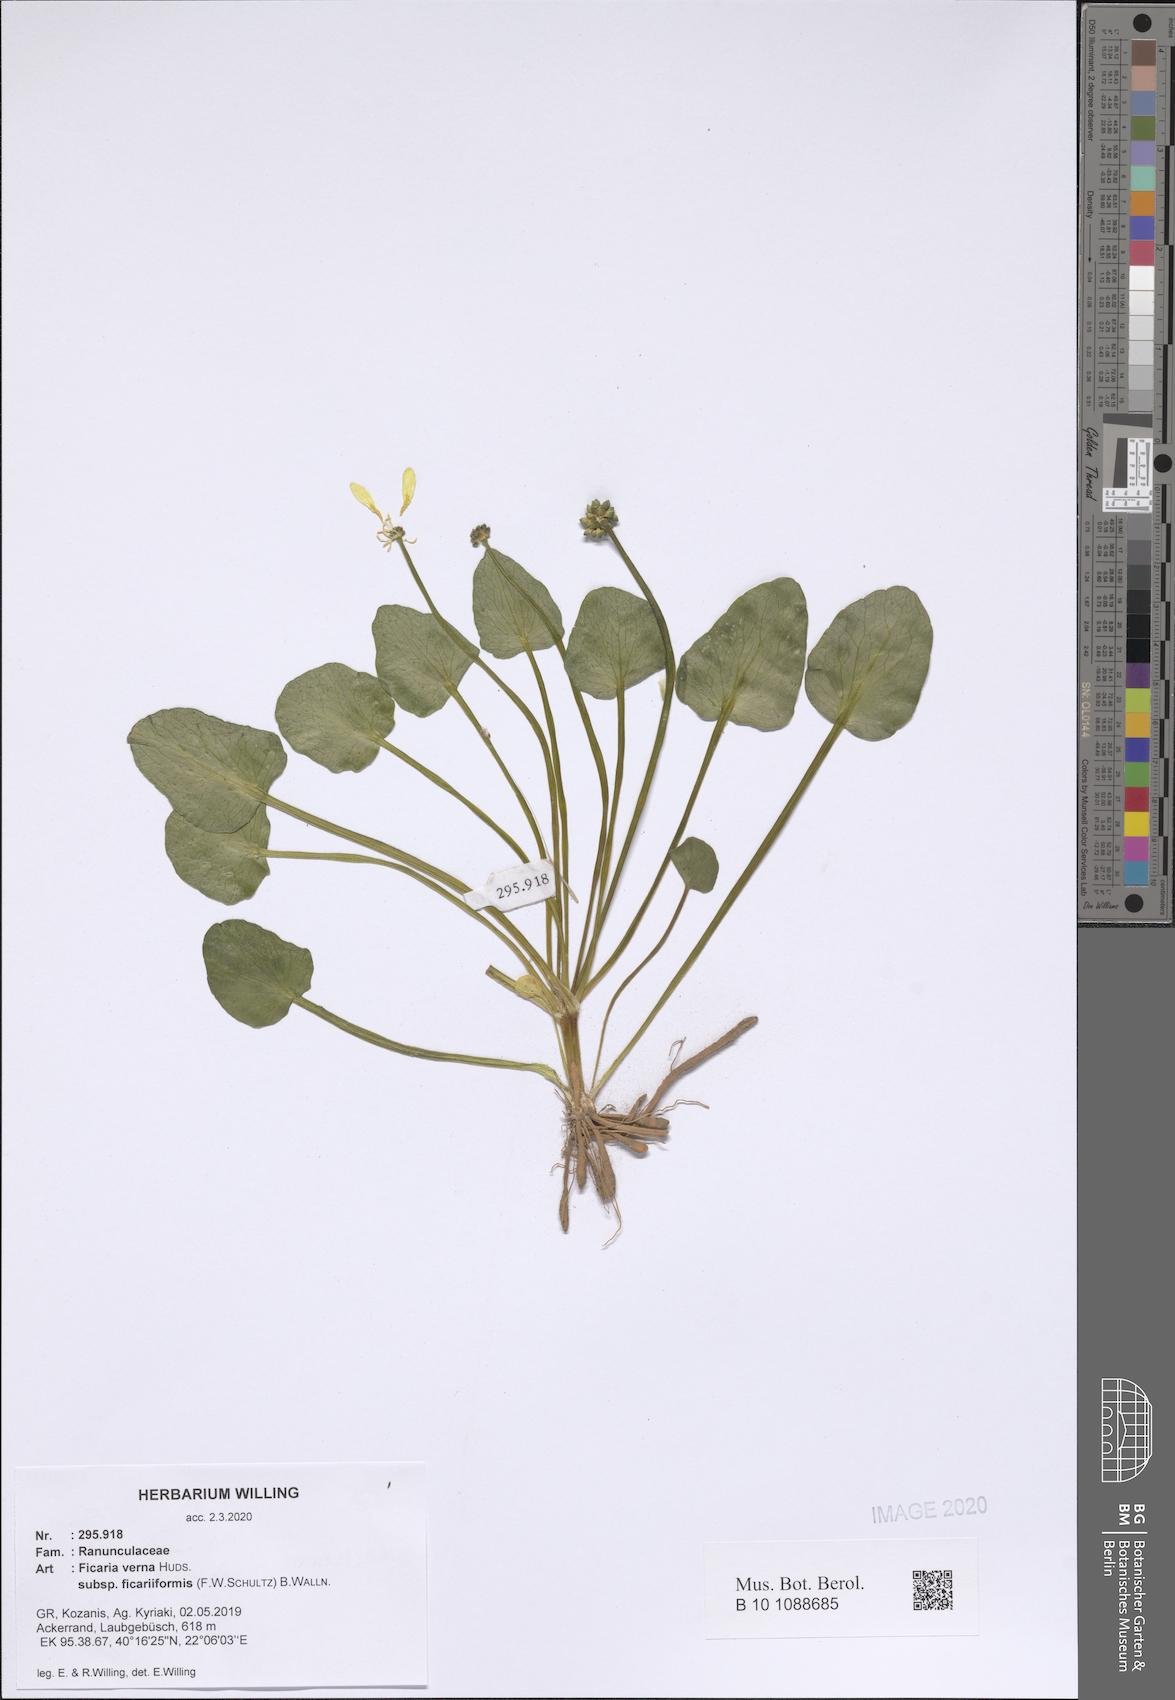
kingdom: Plantae
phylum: Tracheophyta
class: Magnoliopsida
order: Ranunculales
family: Ranunculaceae
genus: Ficaria
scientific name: Ficaria grandiflora
